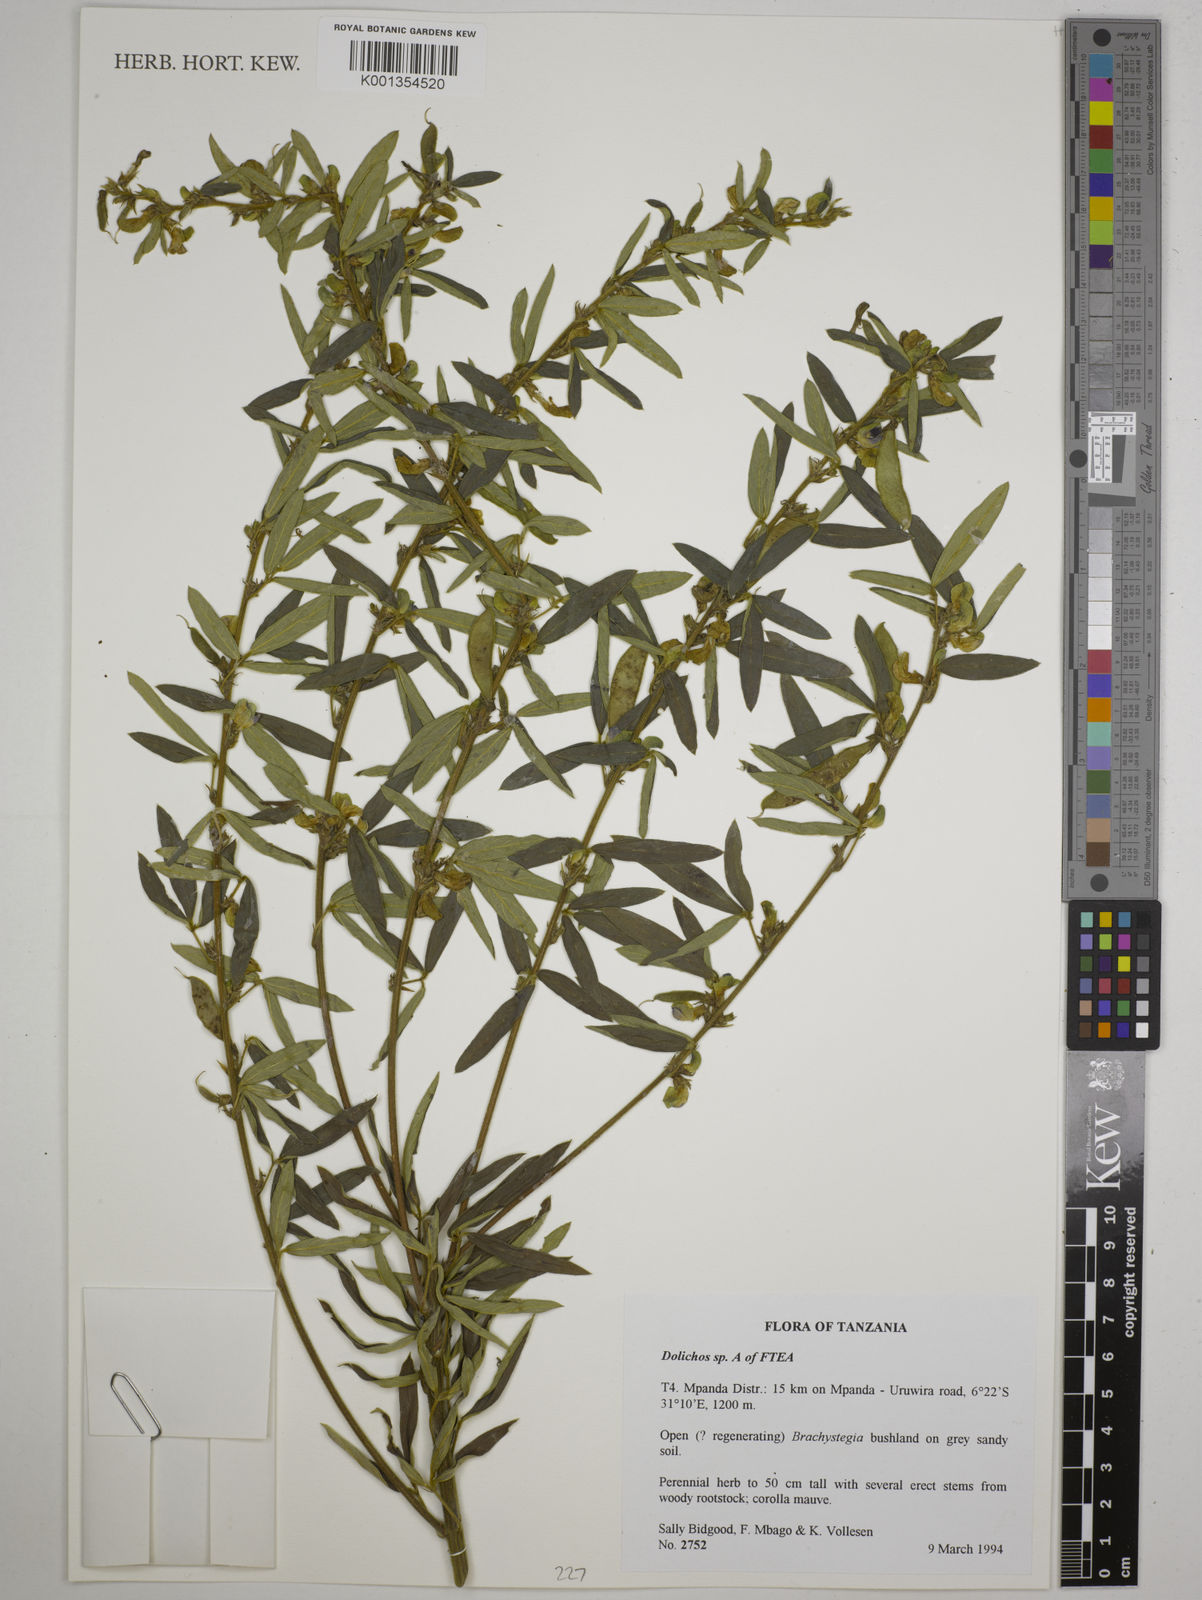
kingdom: Plantae
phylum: Tracheophyta
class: Magnoliopsida
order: Fabales
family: Fabaceae
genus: Dolichos
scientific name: Dolichos
